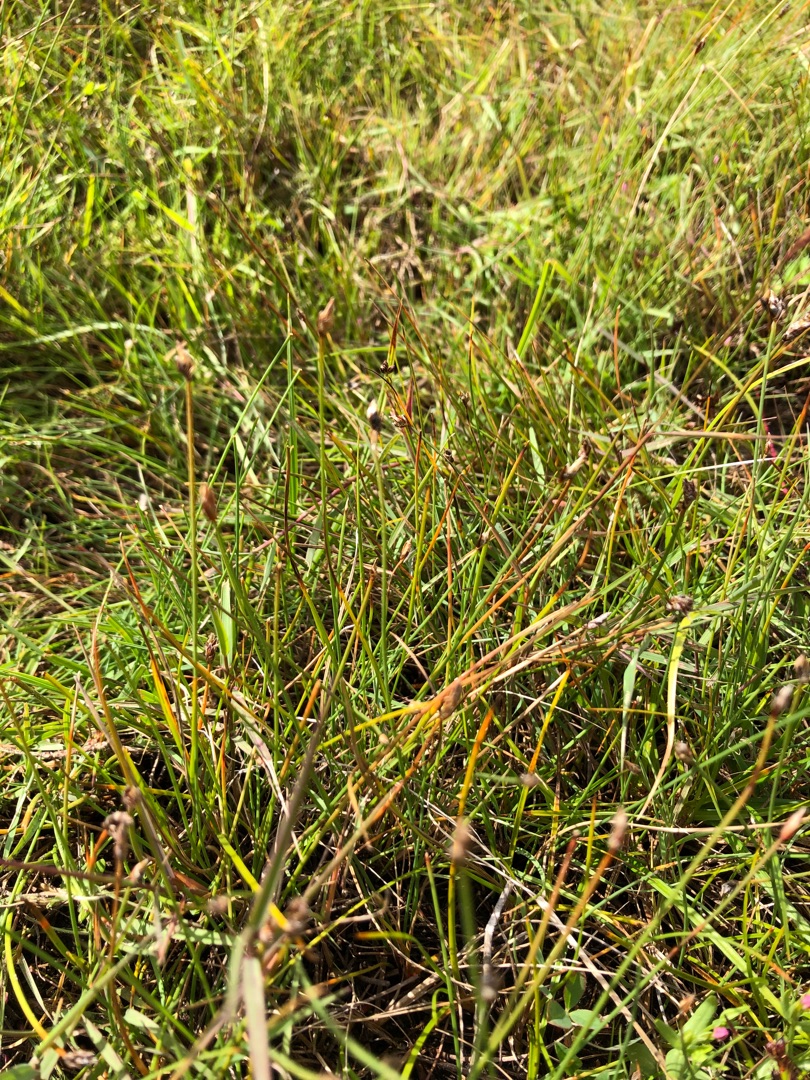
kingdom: Plantae
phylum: Tracheophyta
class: Liliopsida
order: Poales
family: Cyperaceae
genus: Eleocharis
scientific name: Eleocharis quinqueflora
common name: Fåblomstret kogleaks
